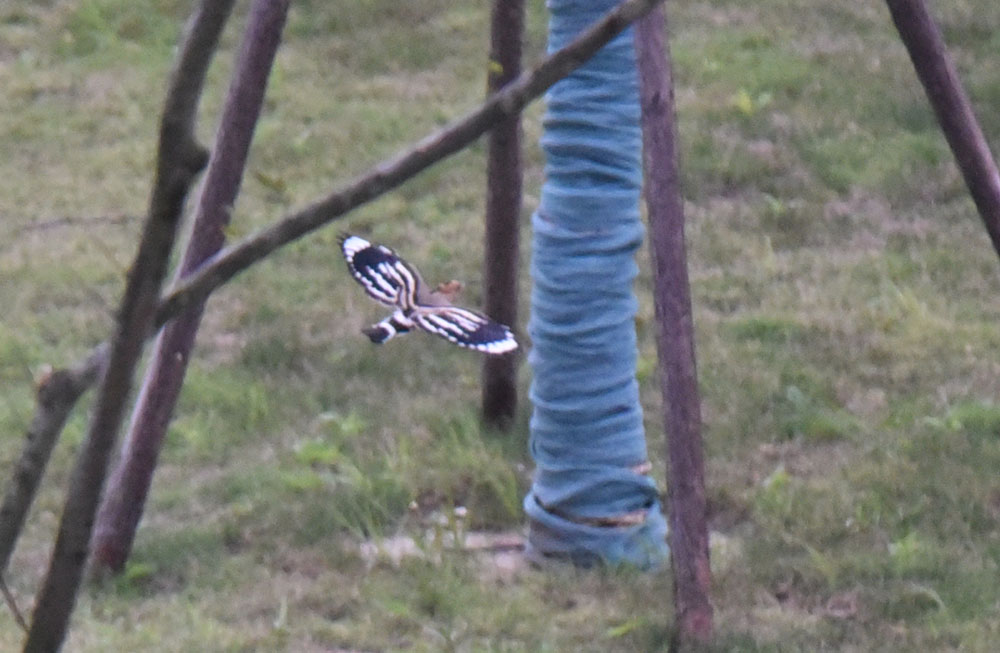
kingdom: Animalia
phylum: Chordata
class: Aves
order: Bucerotiformes
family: Upupidae
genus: Upupa
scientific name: Upupa epops
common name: Eurasian hoopoe
